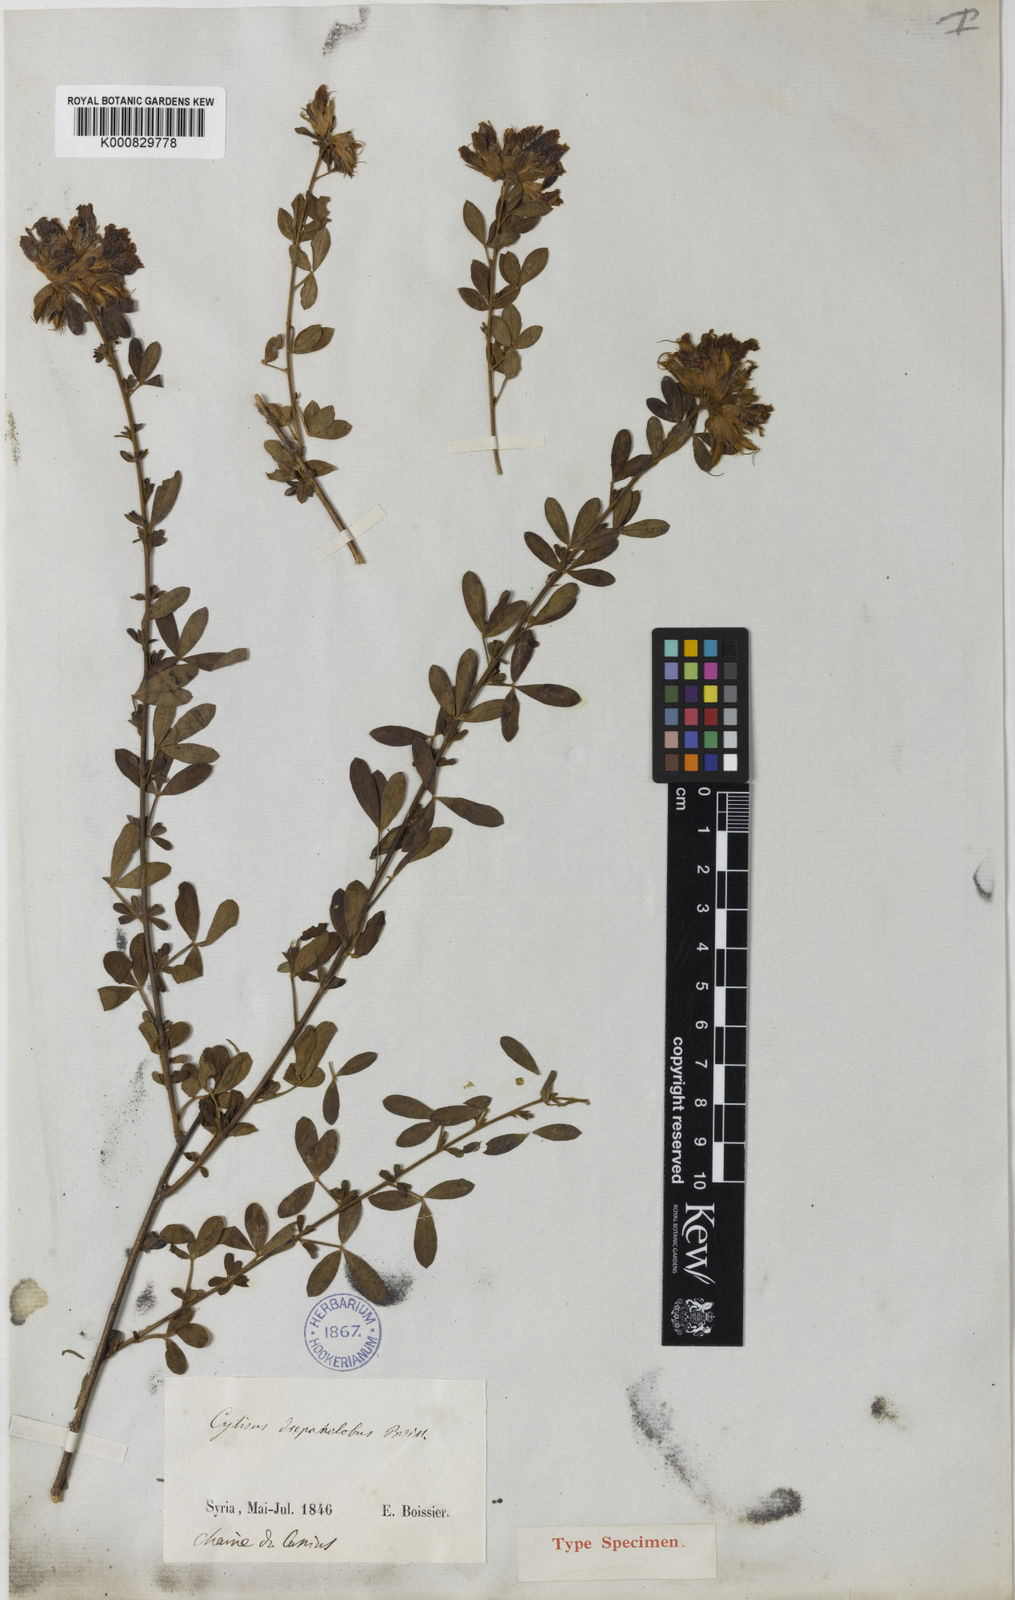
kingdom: Plantae
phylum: Tracheophyta
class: Magnoliopsida
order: Fabales
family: Fabaceae
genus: Chamaecytisus
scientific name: Chamaecytisus drepanolobus
